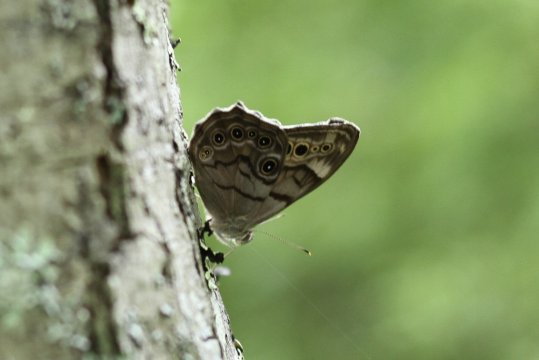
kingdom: Animalia
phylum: Arthropoda
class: Insecta
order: Lepidoptera
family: Nymphalidae
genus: Lethe
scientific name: Lethe anthedon
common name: Northern Pearly-Eye
